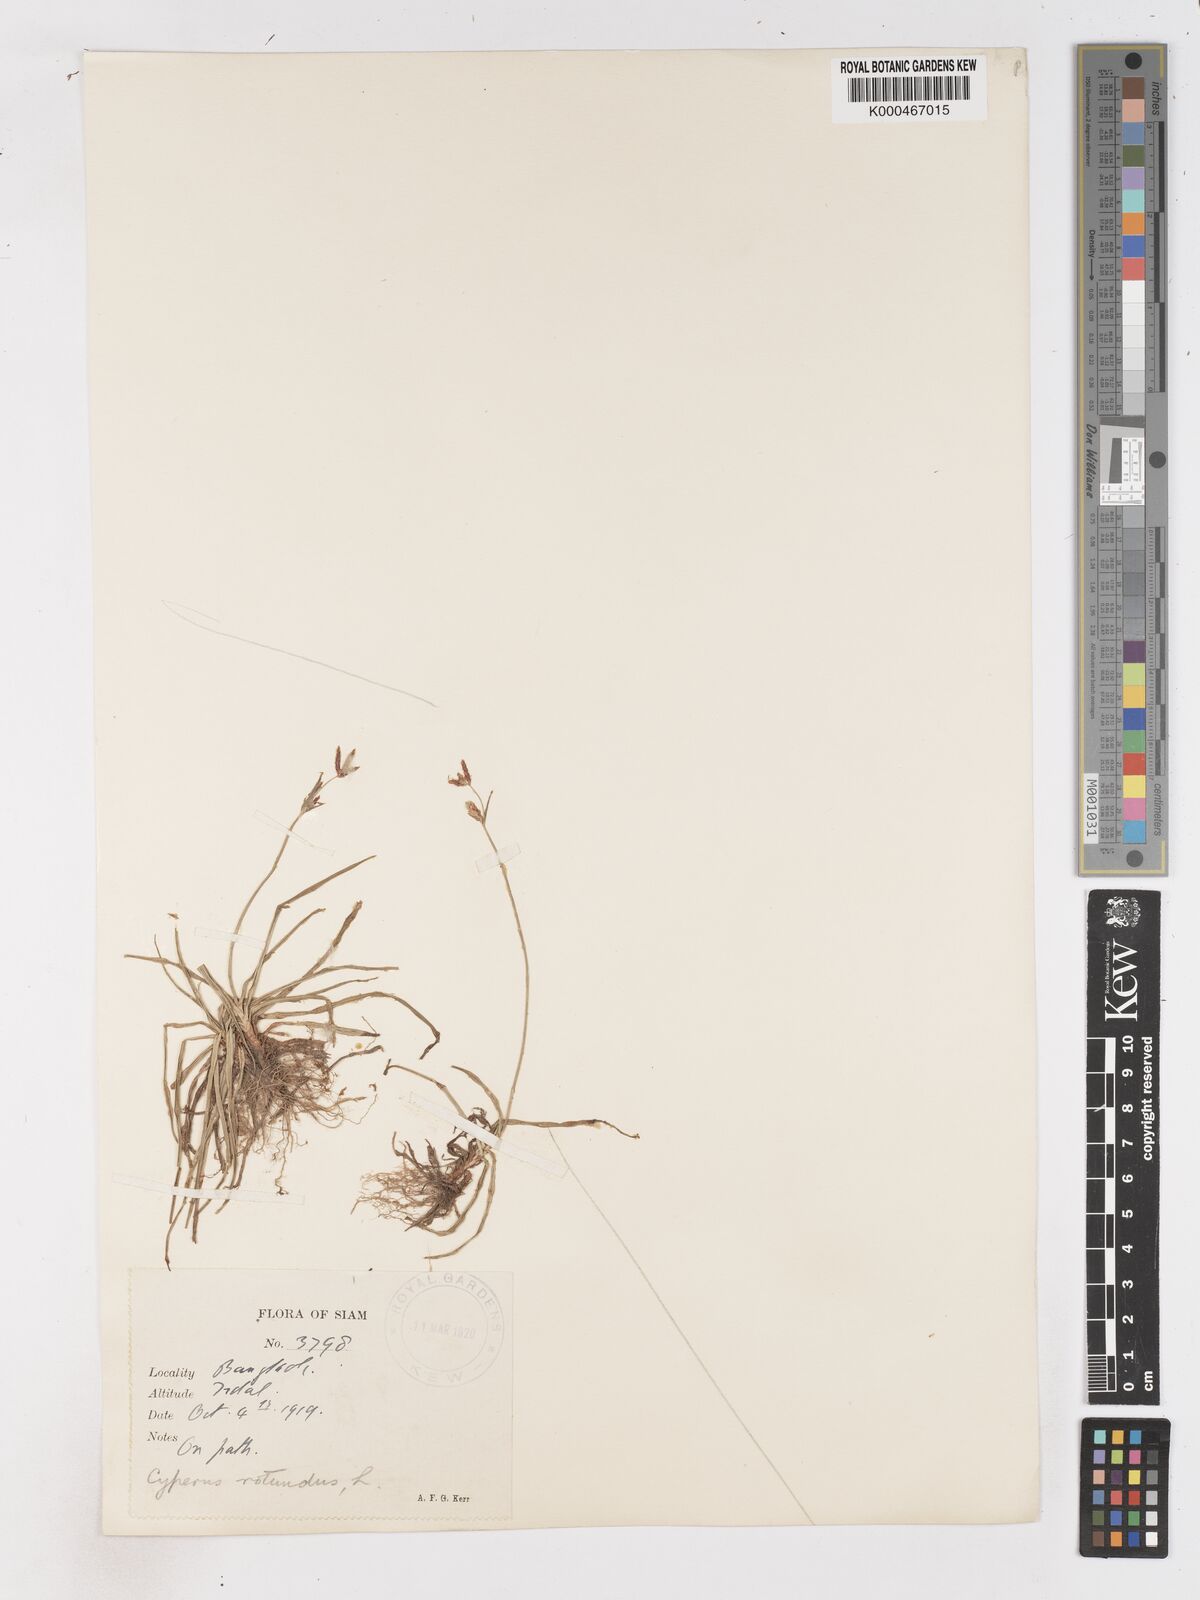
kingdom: Plantae
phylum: Tracheophyta
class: Liliopsida
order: Poales
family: Cyperaceae
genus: Cyperus
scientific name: Cyperus rotundus
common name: Nutgrass
